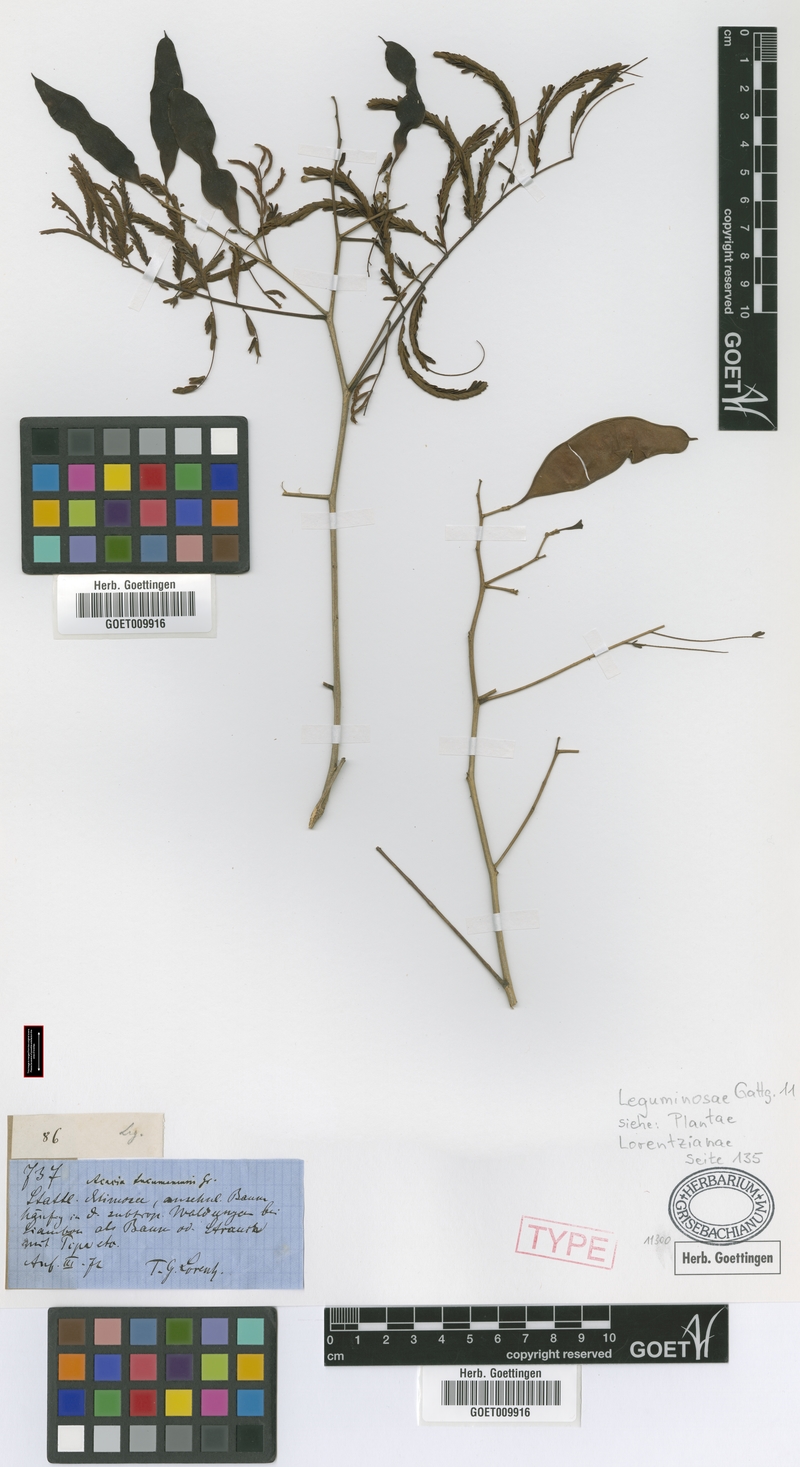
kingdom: Plantae
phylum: Tracheophyta
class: Magnoliopsida
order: Fabales
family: Fabaceae
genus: Senegalia
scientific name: Senegalia tucumanensis
